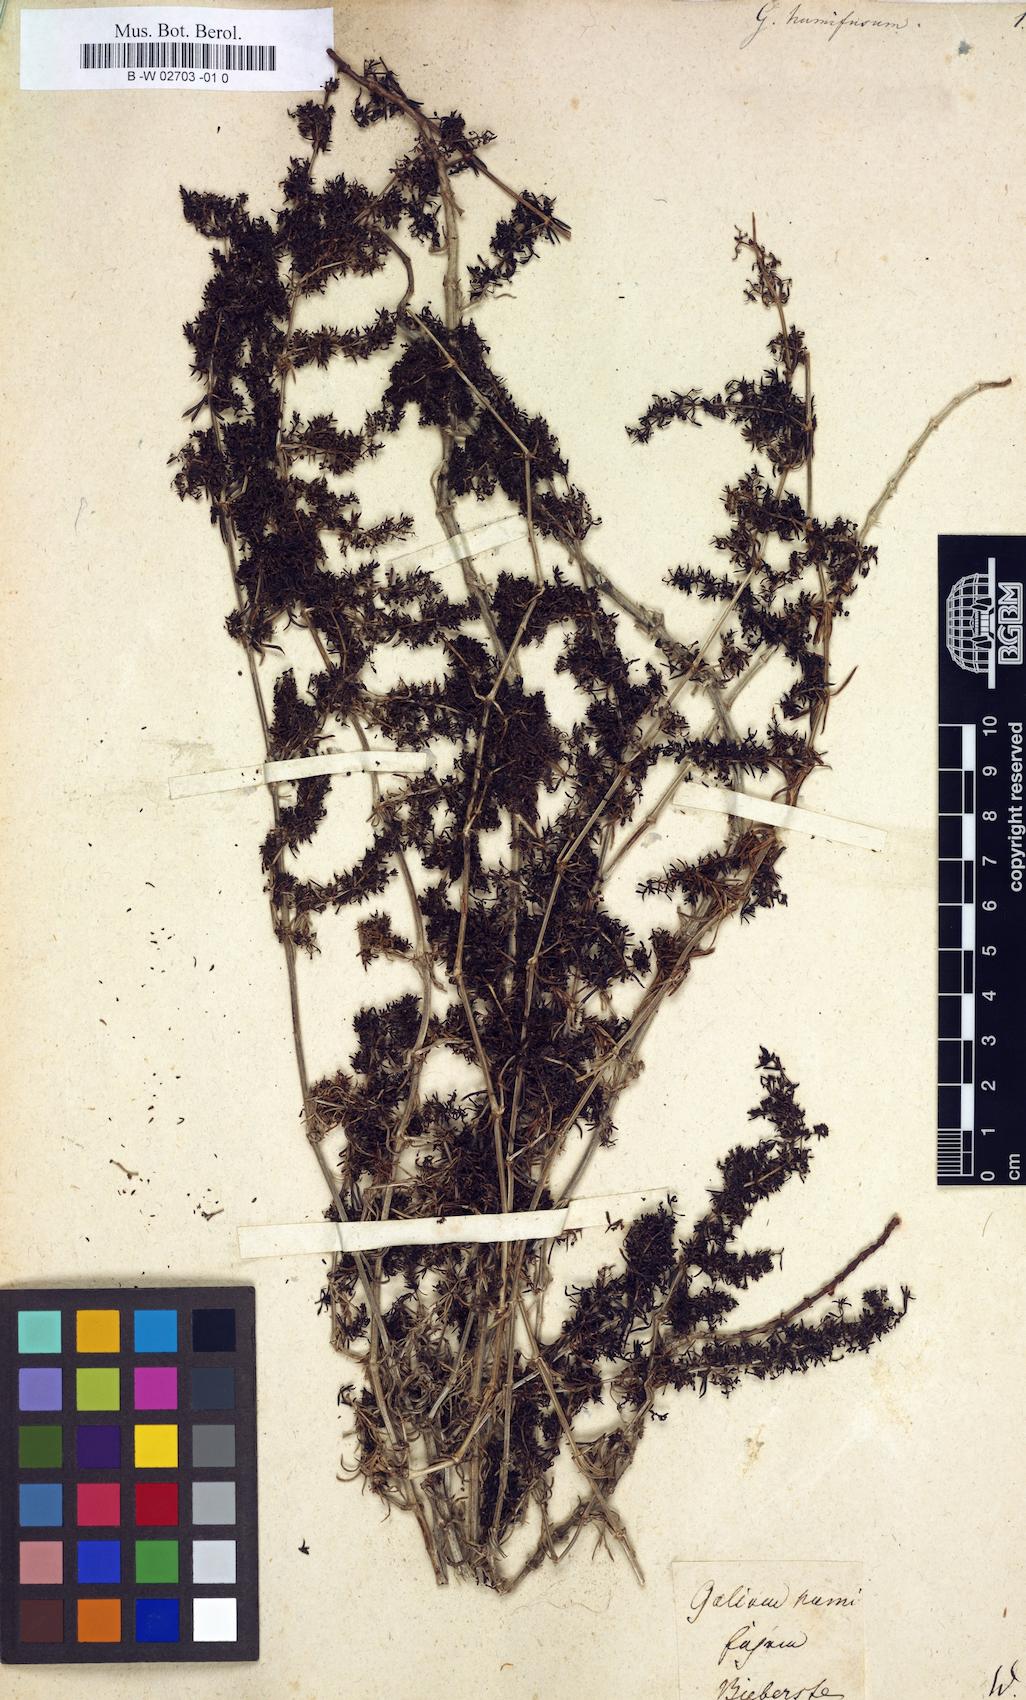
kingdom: Plantae
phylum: Tracheophyta
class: Magnoliopsida
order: Gentianales
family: Rubiaceae
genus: Galium
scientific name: Galium humifusum
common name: Spreading bedstraw
